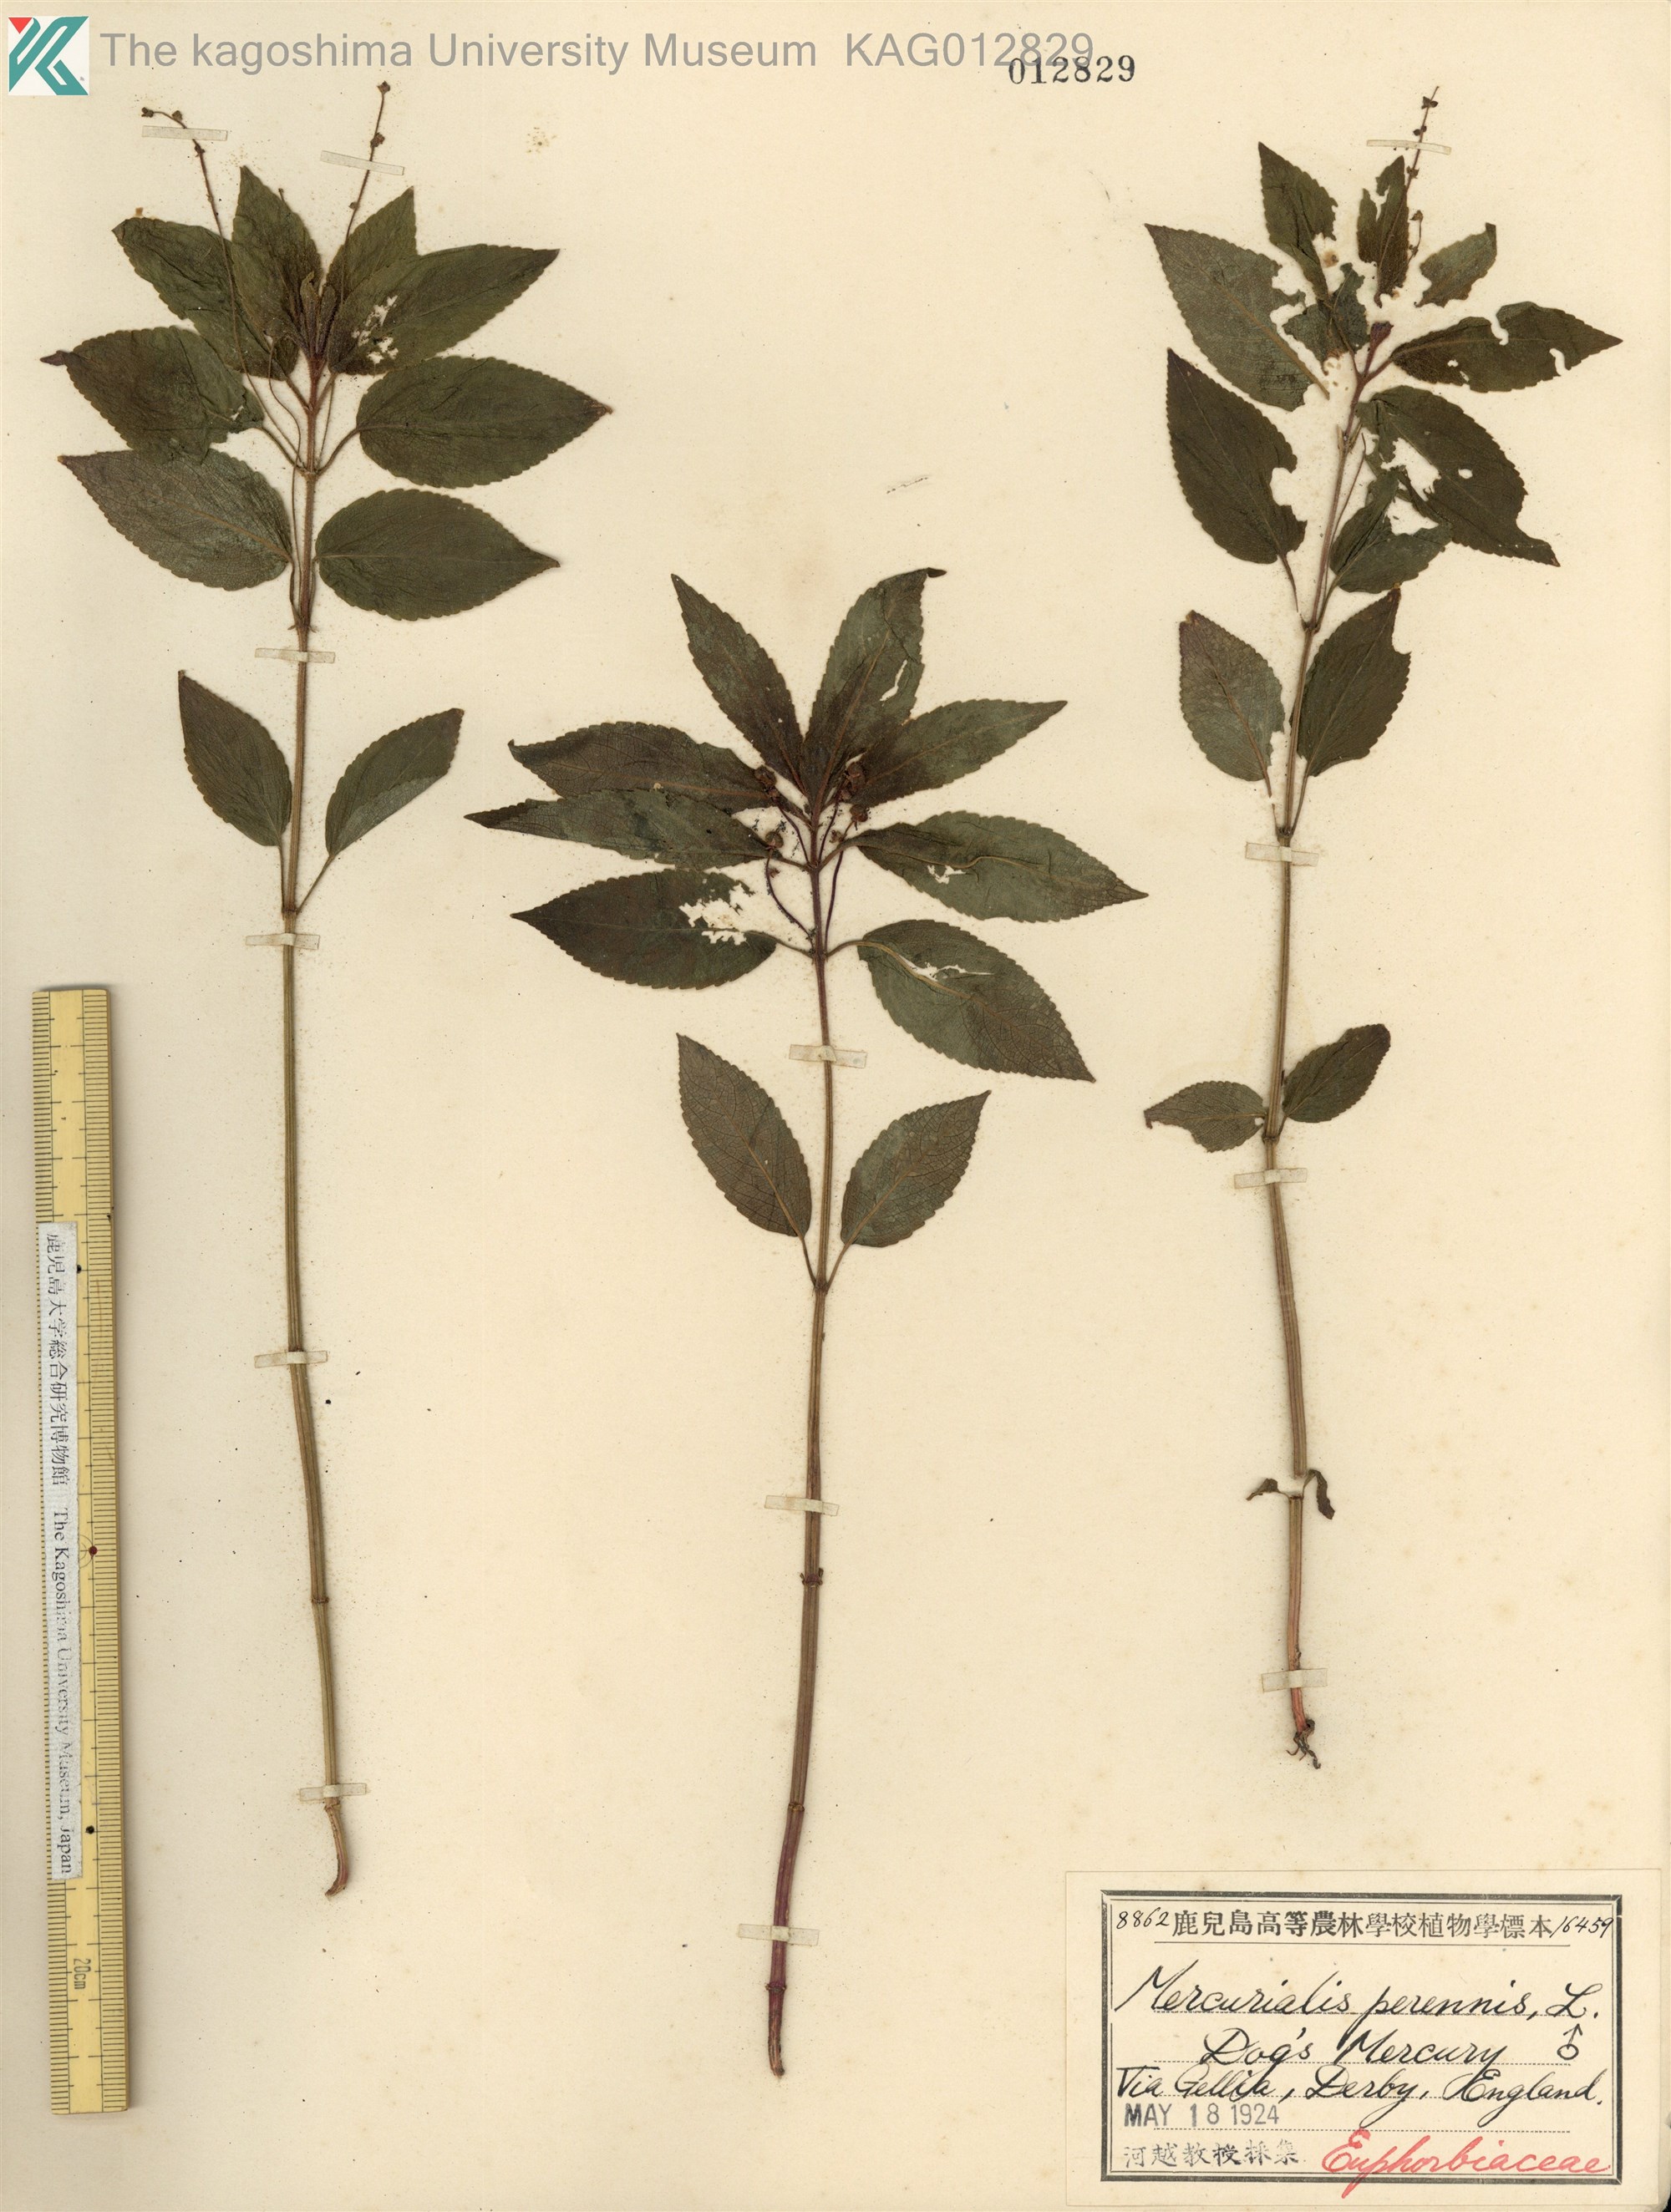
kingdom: Plantae
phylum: Tracheophyta
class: Magnoliopsida
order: Malpighiales
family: Euphorbiaceae
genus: Mercurialis
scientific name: Mercurialis perennis
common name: Dog mercury
